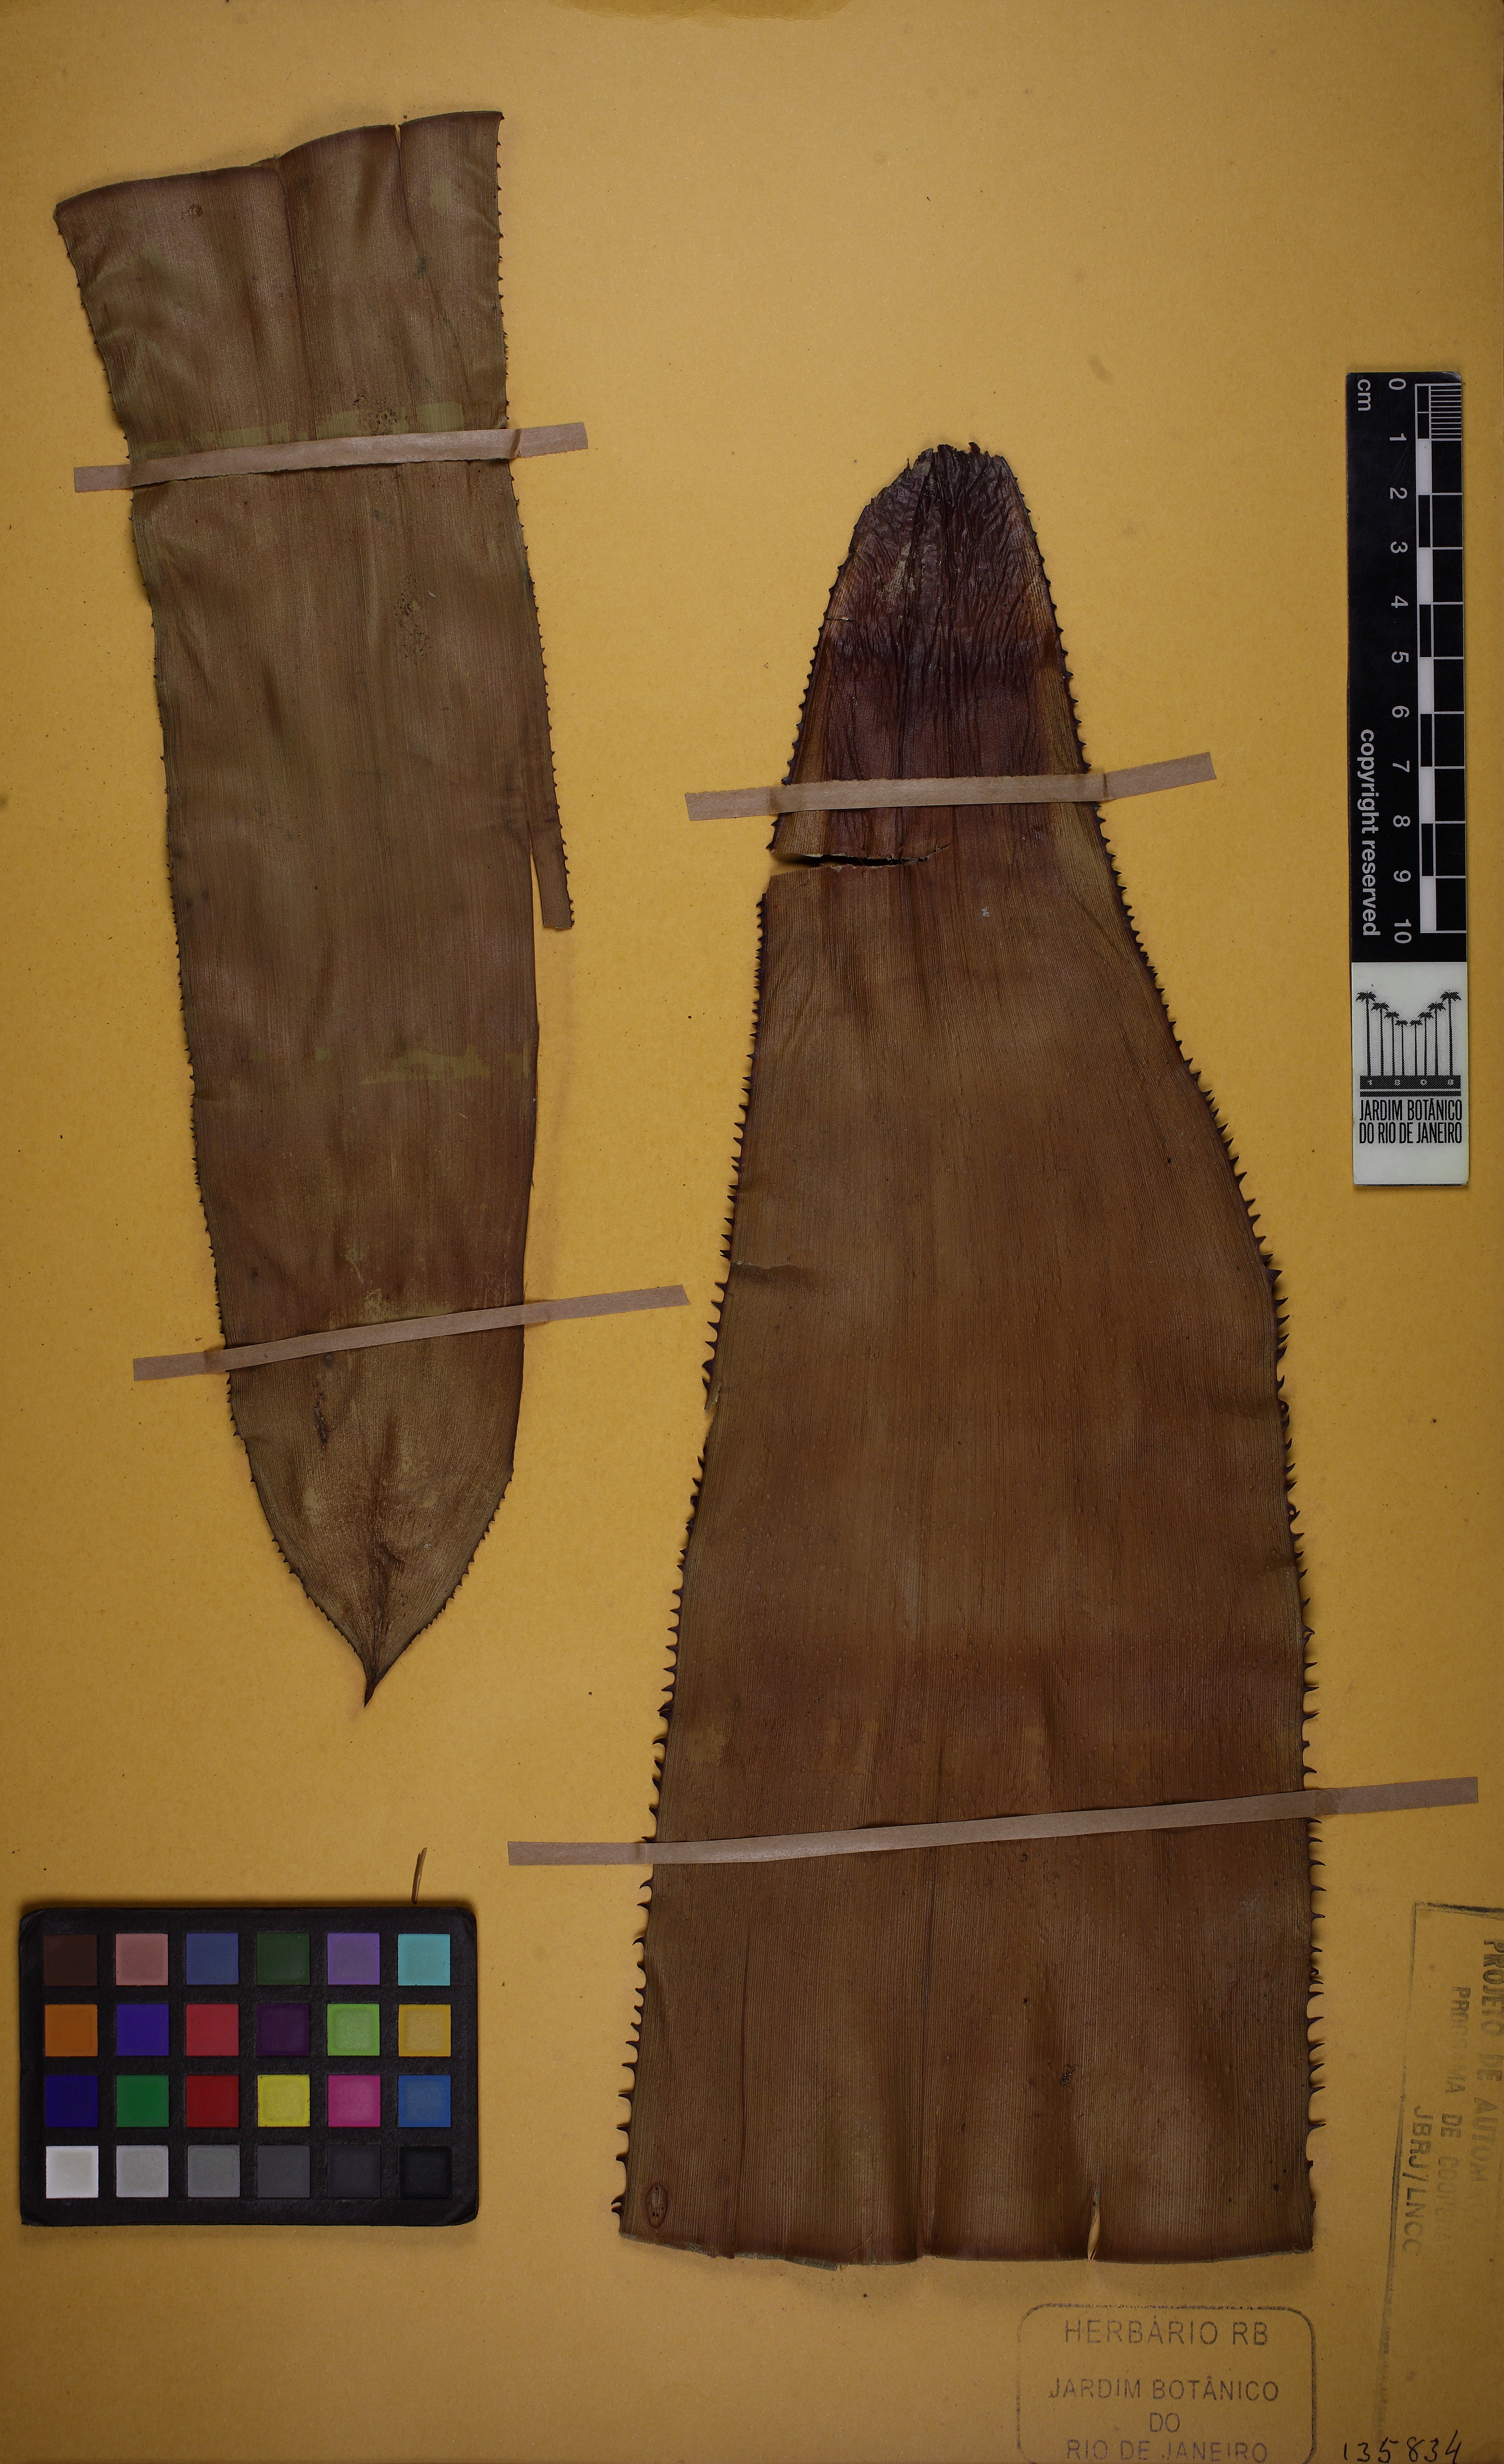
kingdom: Plantae
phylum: Tracheophyta
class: Liliopsida
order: Poales
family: Bromeliaceae
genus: Aechmea
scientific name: Aechmea floribunda
